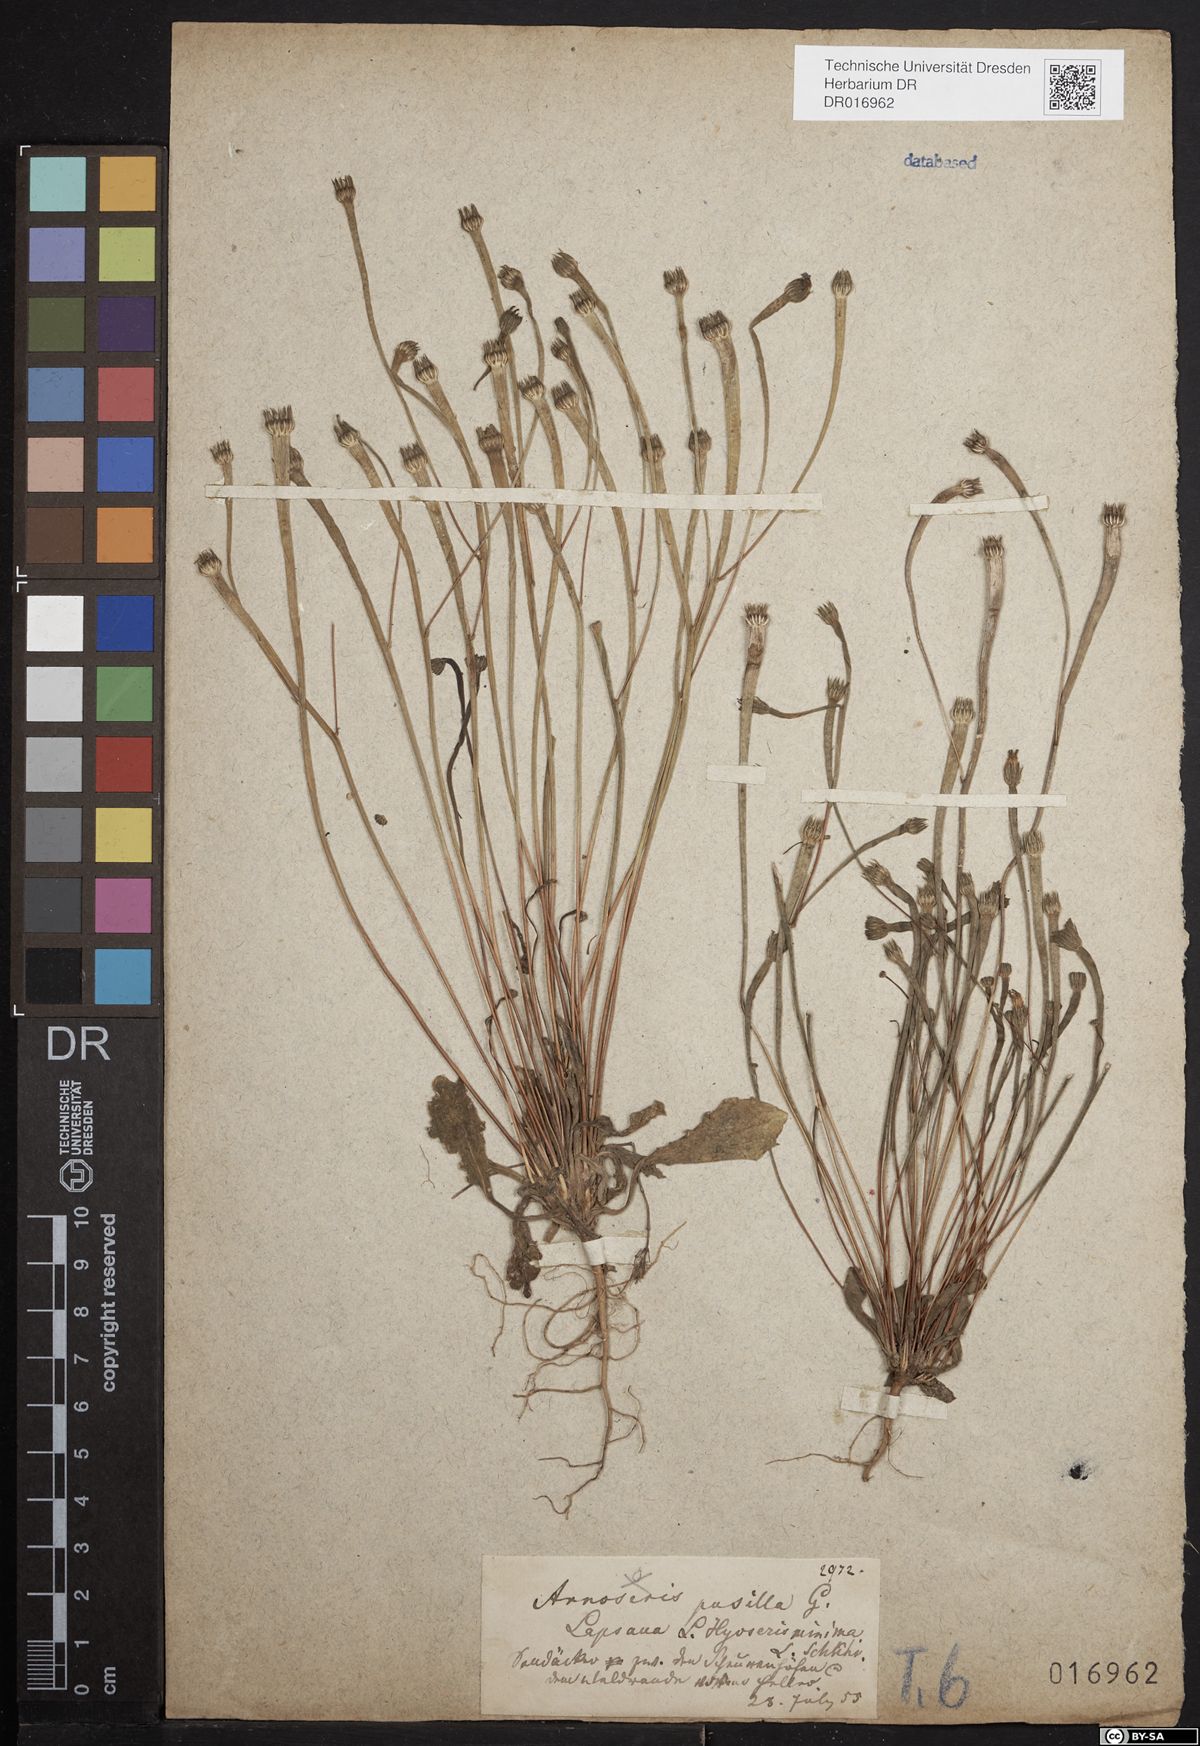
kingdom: Plantae
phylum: Tracheophyta
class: Magnoliopsida
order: Asterales
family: Asteraceae
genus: Arnoseris
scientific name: Arnoseris minima
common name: Lamb's succory
